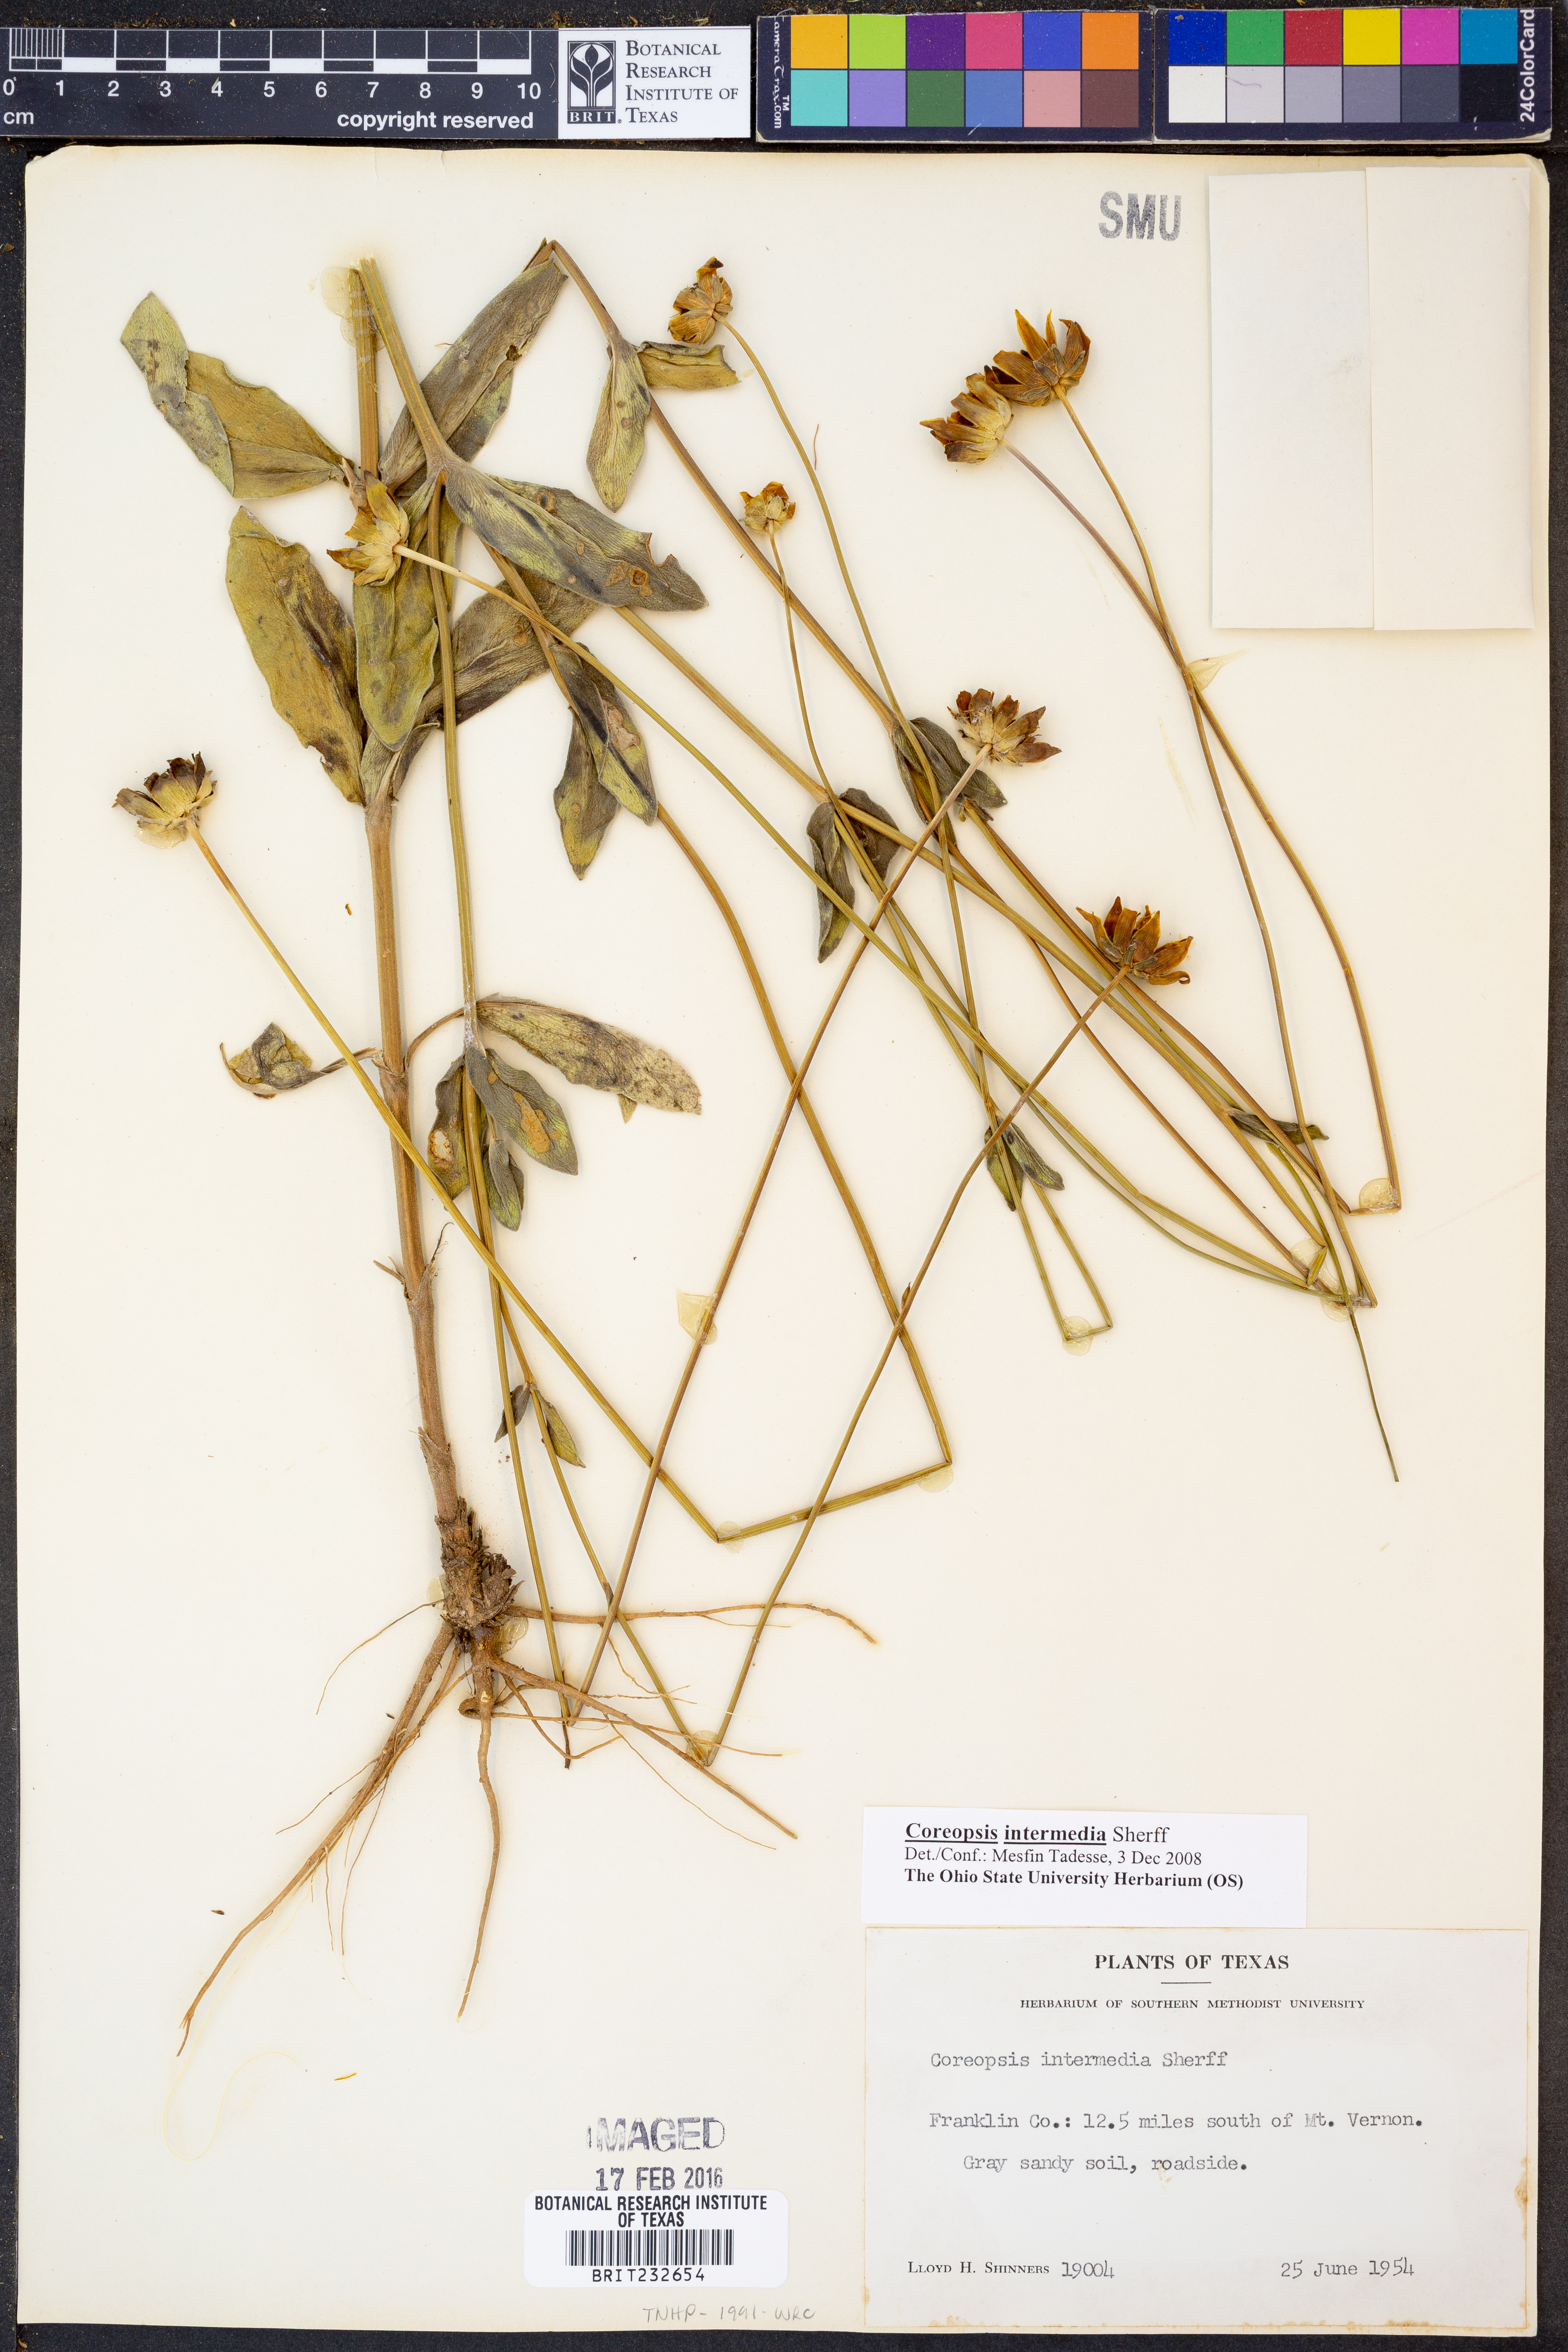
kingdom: Plantae
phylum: Tracheophyta
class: Magnoliopsida
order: Asterales
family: Asteraceae
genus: Coreopsis
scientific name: Coreopsis intermedia
